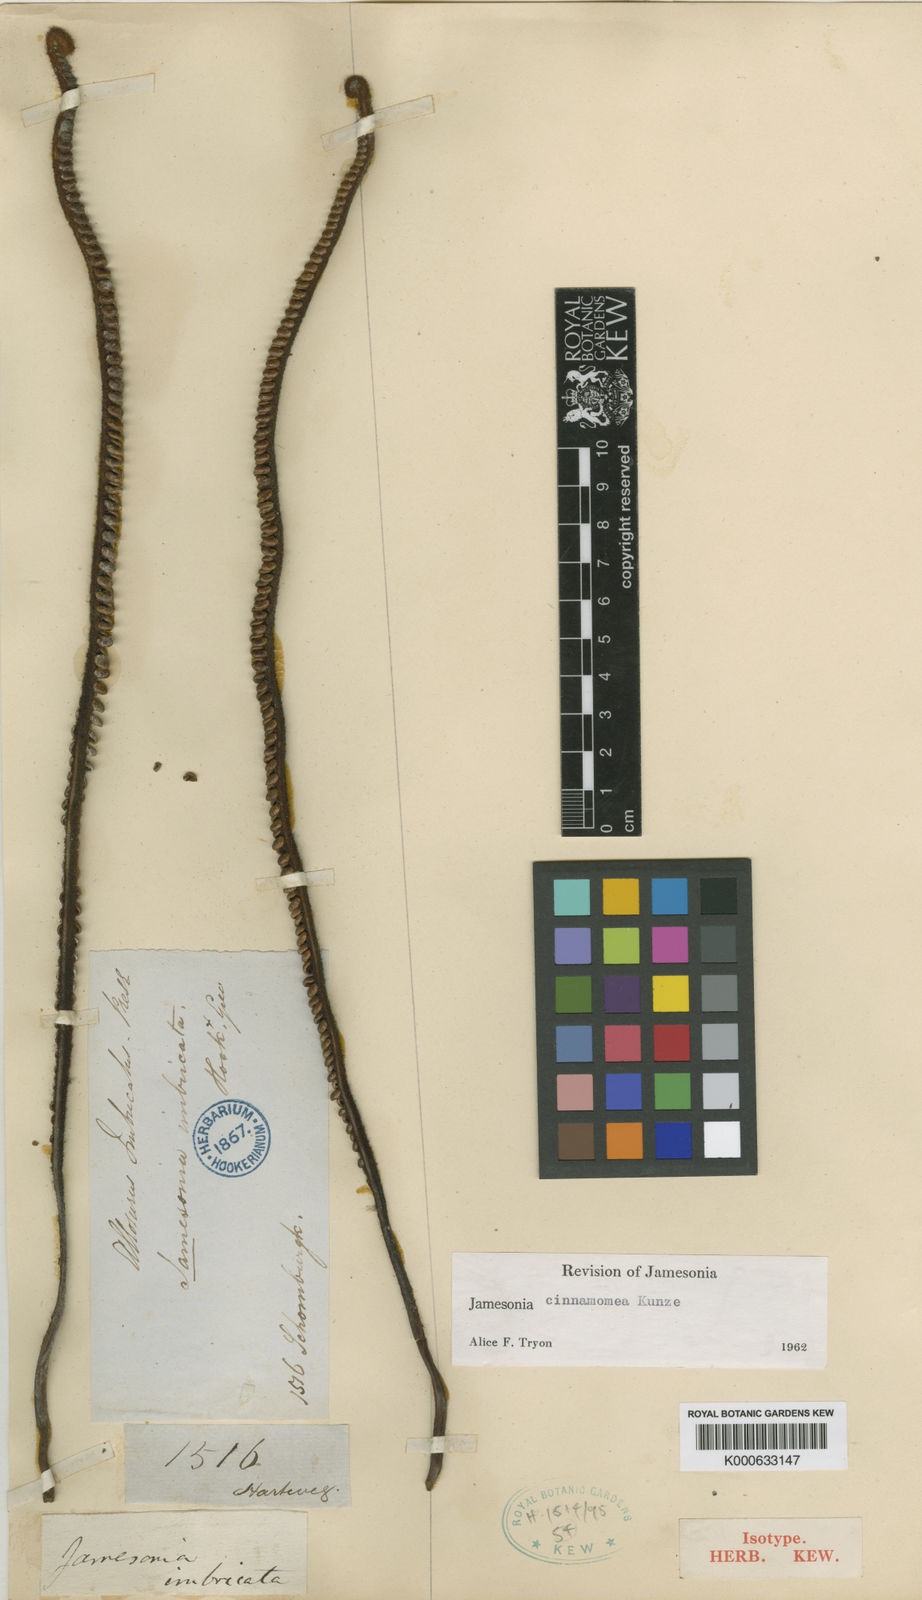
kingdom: Plantae
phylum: Tracheophyta
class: Polypodiopsida
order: Polypodiales
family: Pteridaceae
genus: Jamesonia
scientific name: Jamesonia cinnamomea
